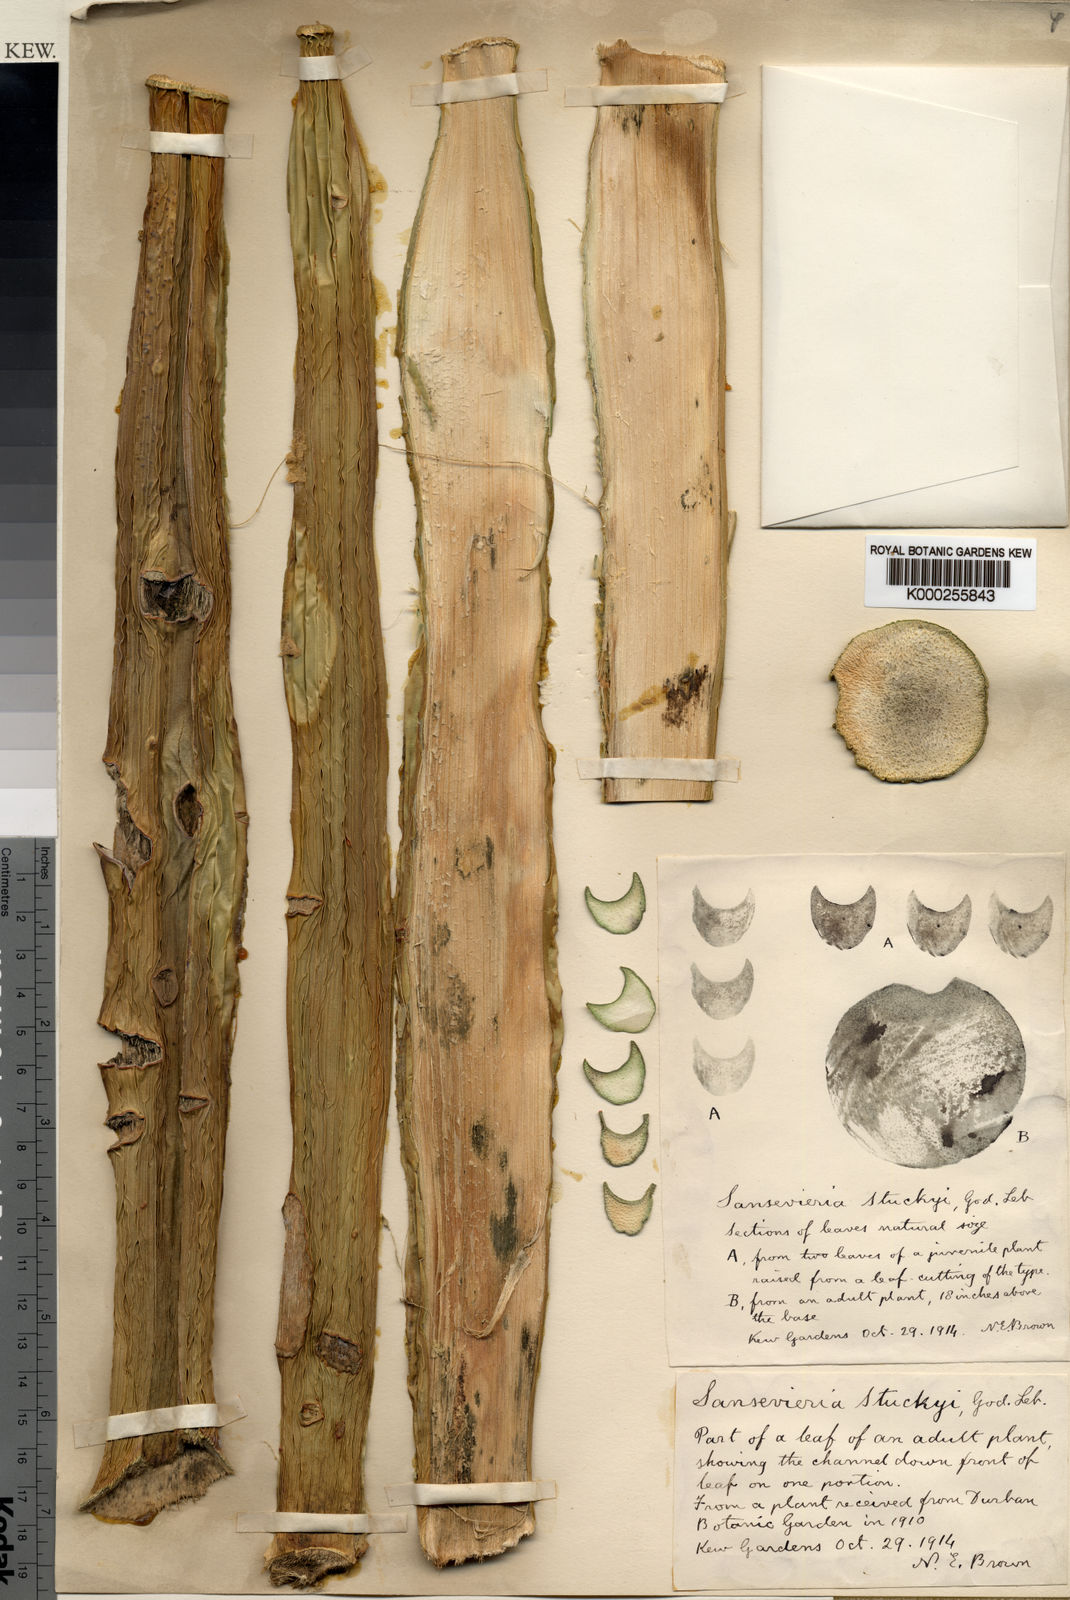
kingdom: Plantae
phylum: Tracheophyta
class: Liliopsida
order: Asparagales
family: Asparagaceae
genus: Dracaena
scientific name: Dracaena stuckyi
